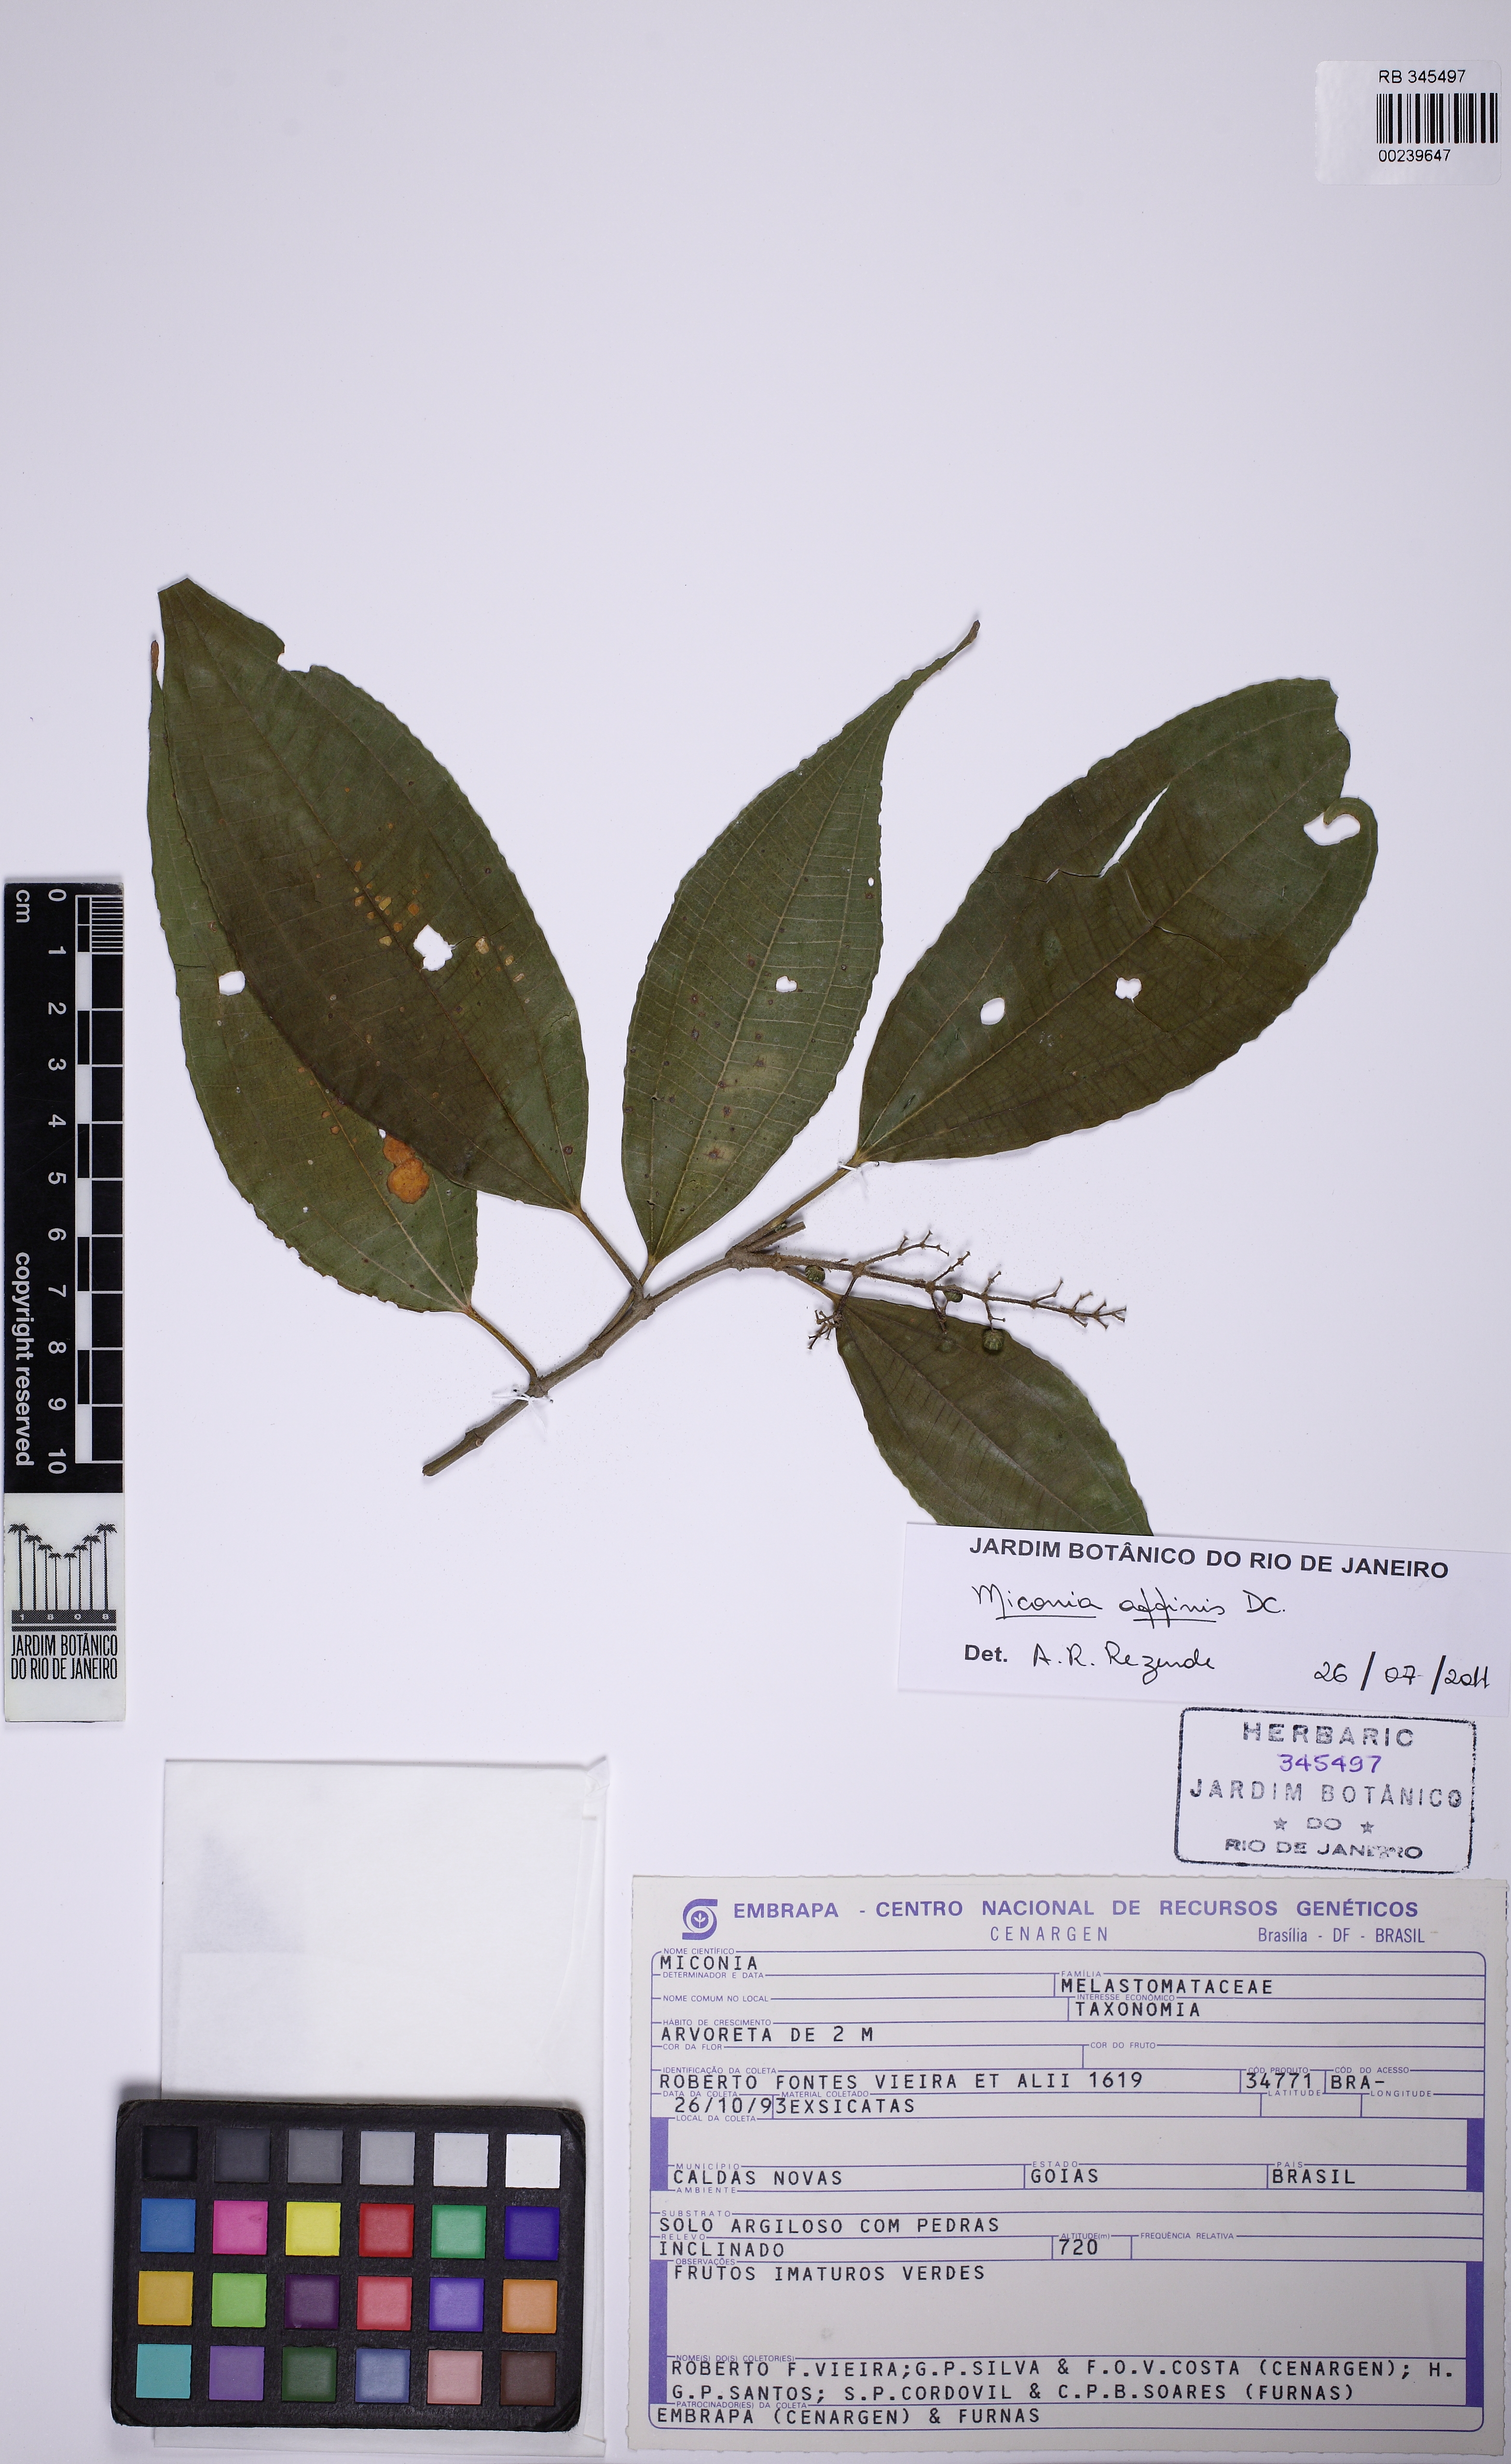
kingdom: Plantae
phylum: Tracheophyta
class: Magnoliopsida
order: Myrtales
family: Melastomataceae
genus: Miconia
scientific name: Miconia affinis
